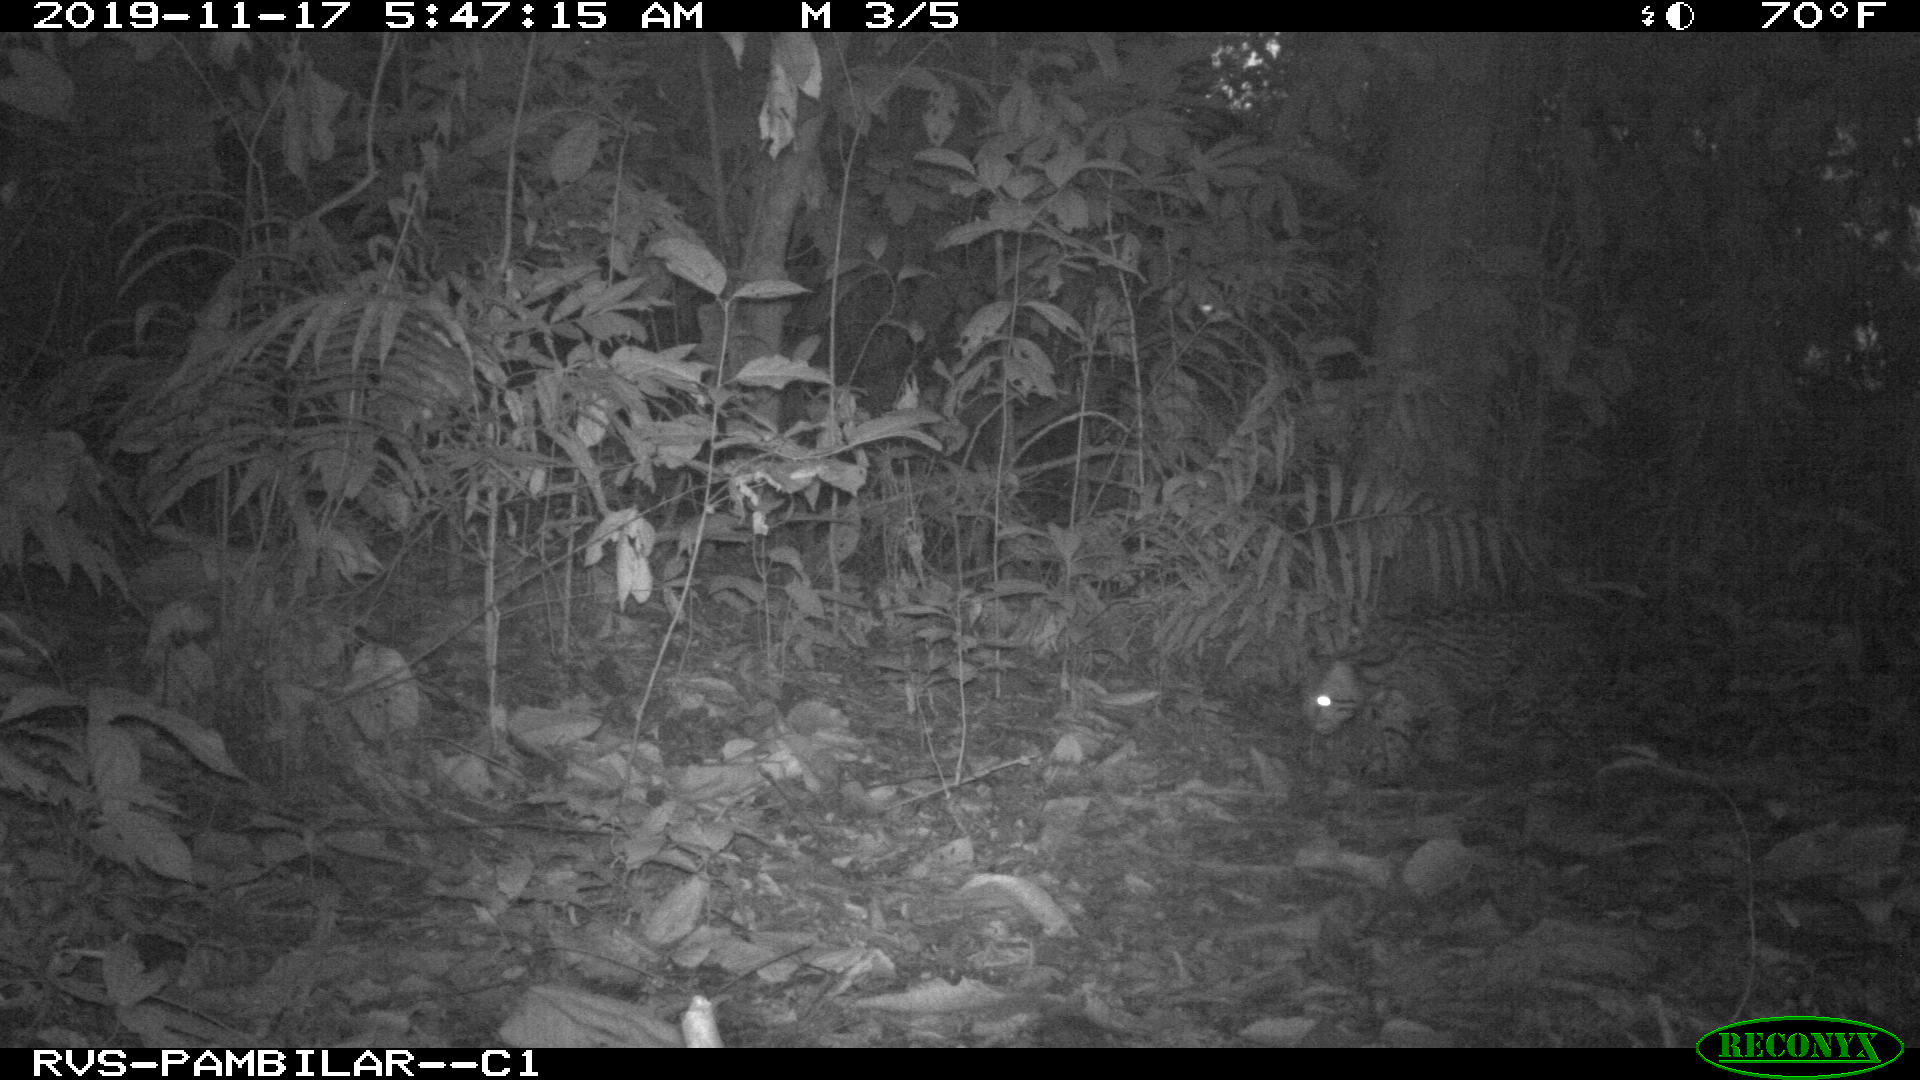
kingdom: Animalia
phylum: Chordata
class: Mammalia
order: Carnivora
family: Felidae
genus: Leopardus
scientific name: Leopardus pardalis
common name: Ocelot
